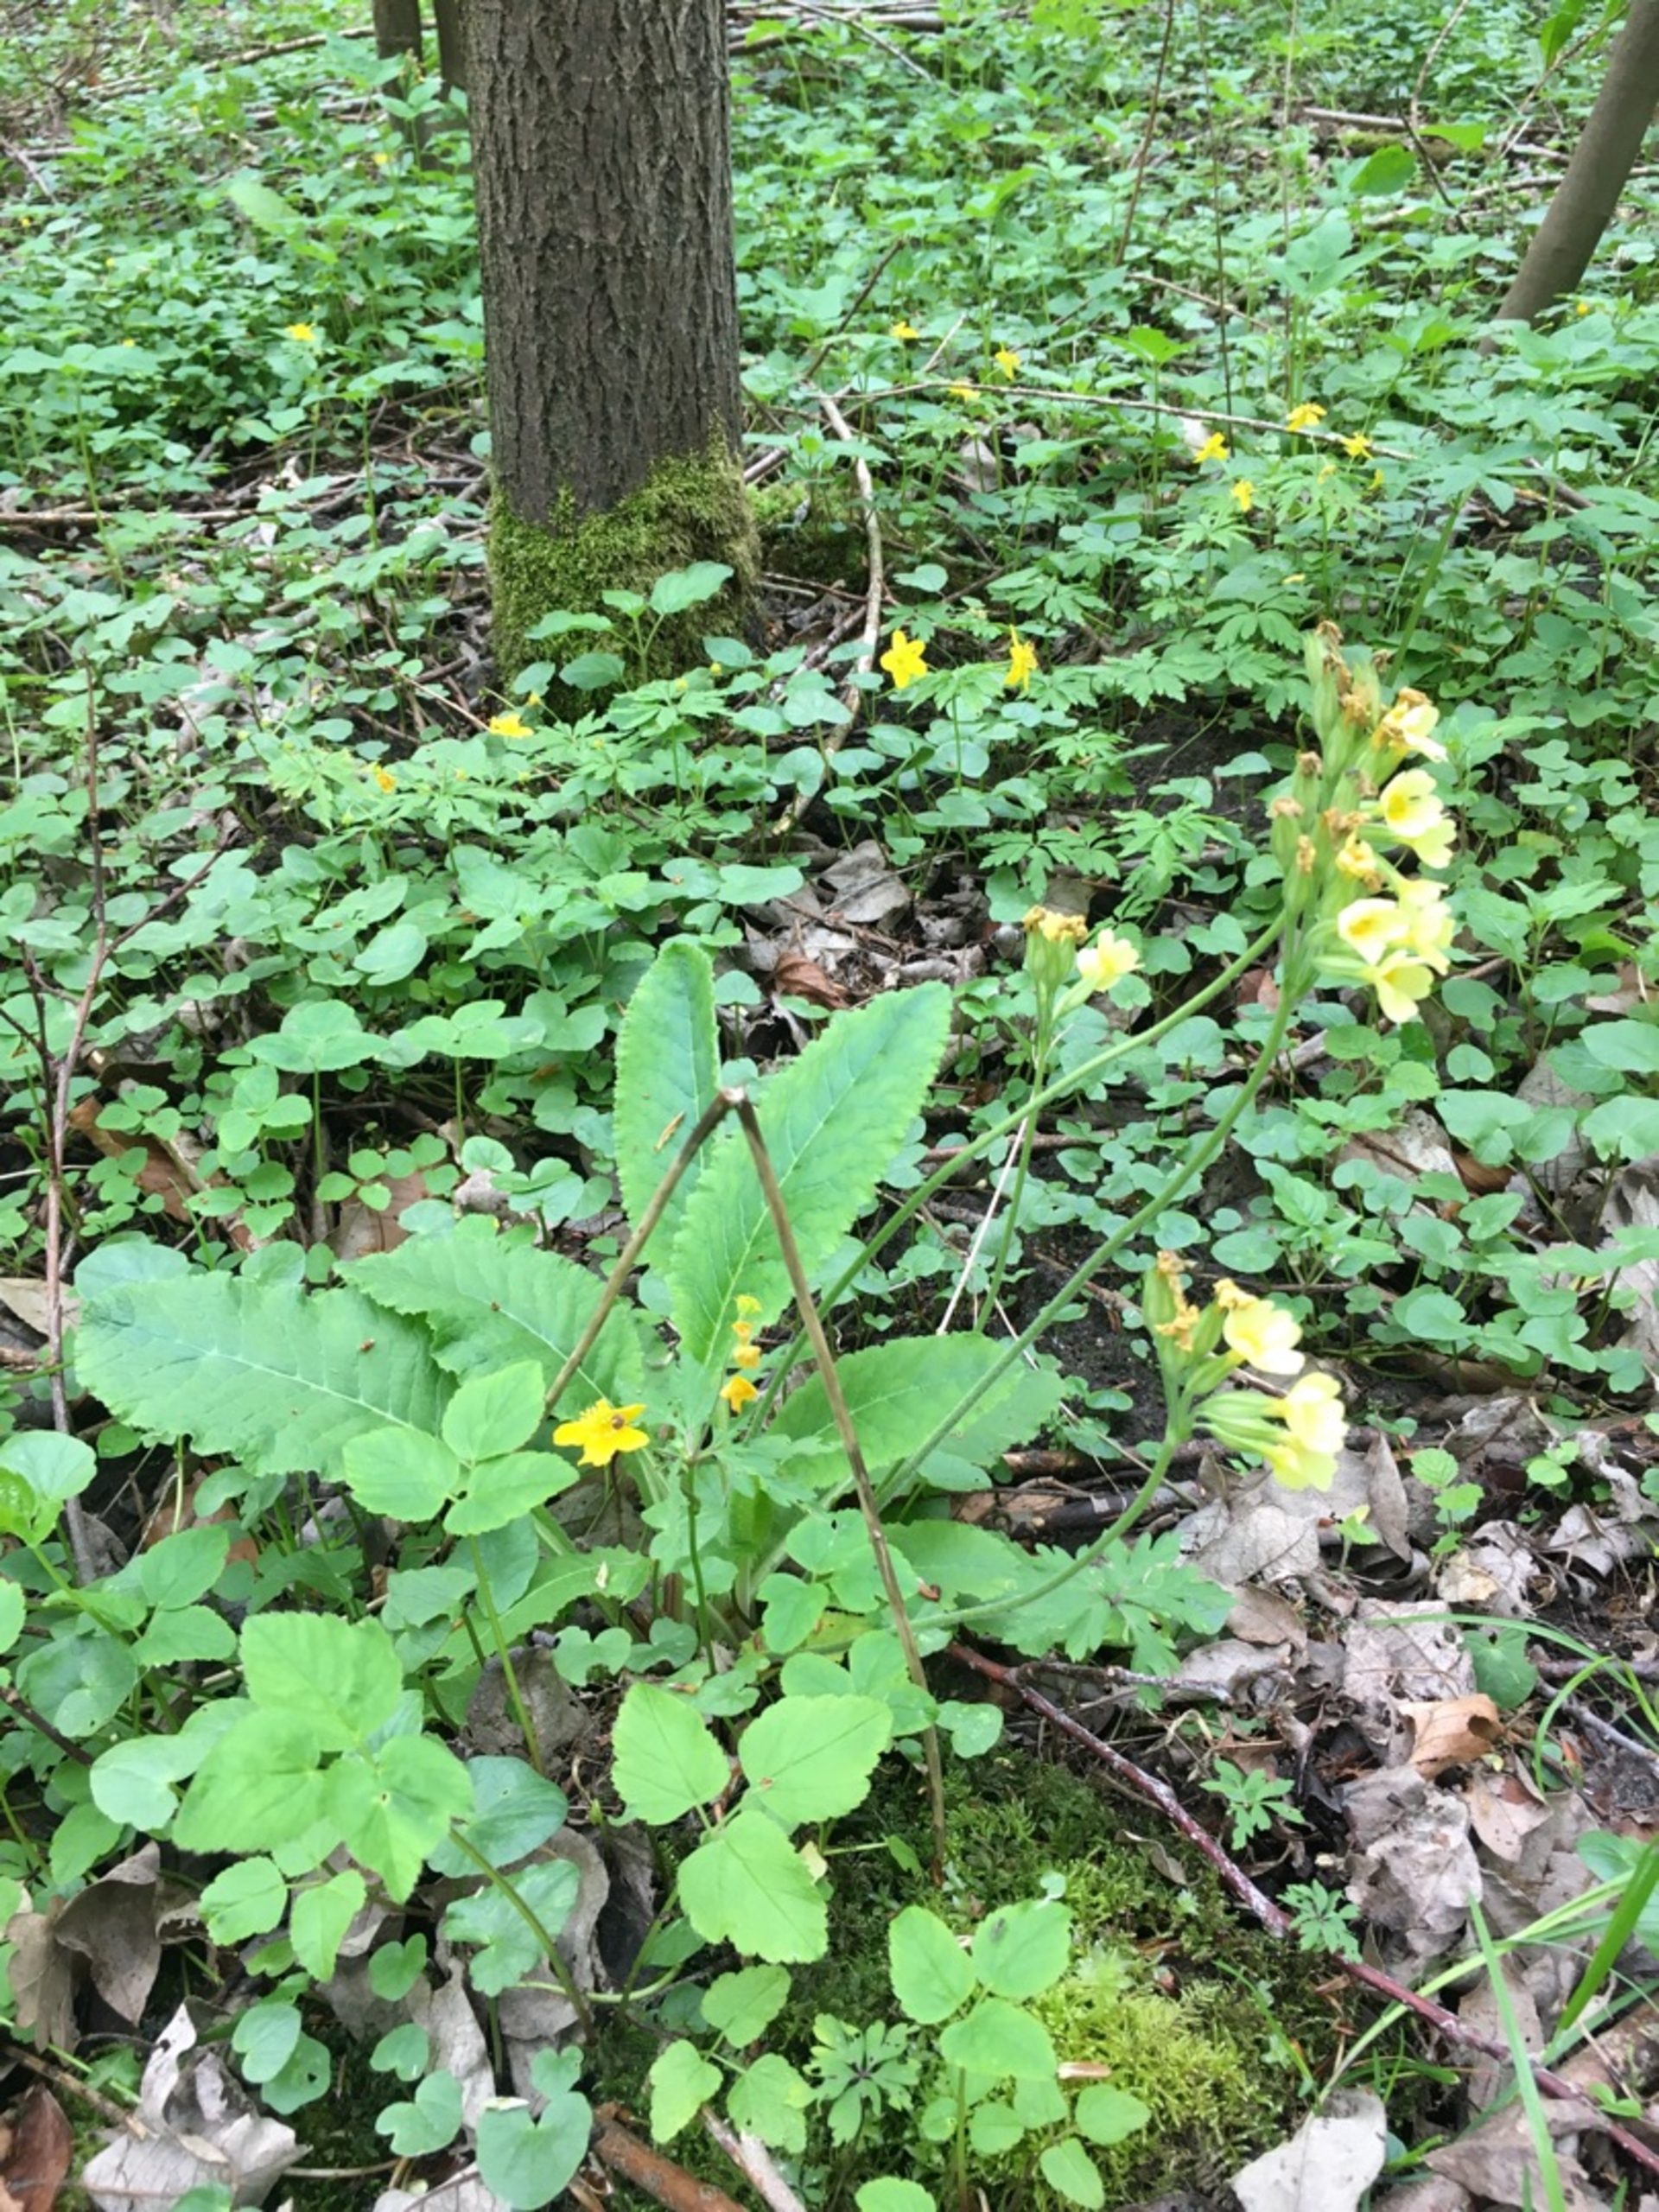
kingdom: Plantae
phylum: Tracheophyta
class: Magnoliopsida
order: Ericales
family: Primulaceae
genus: Primula
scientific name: Primula elatior
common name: Fladkravet kodriver
